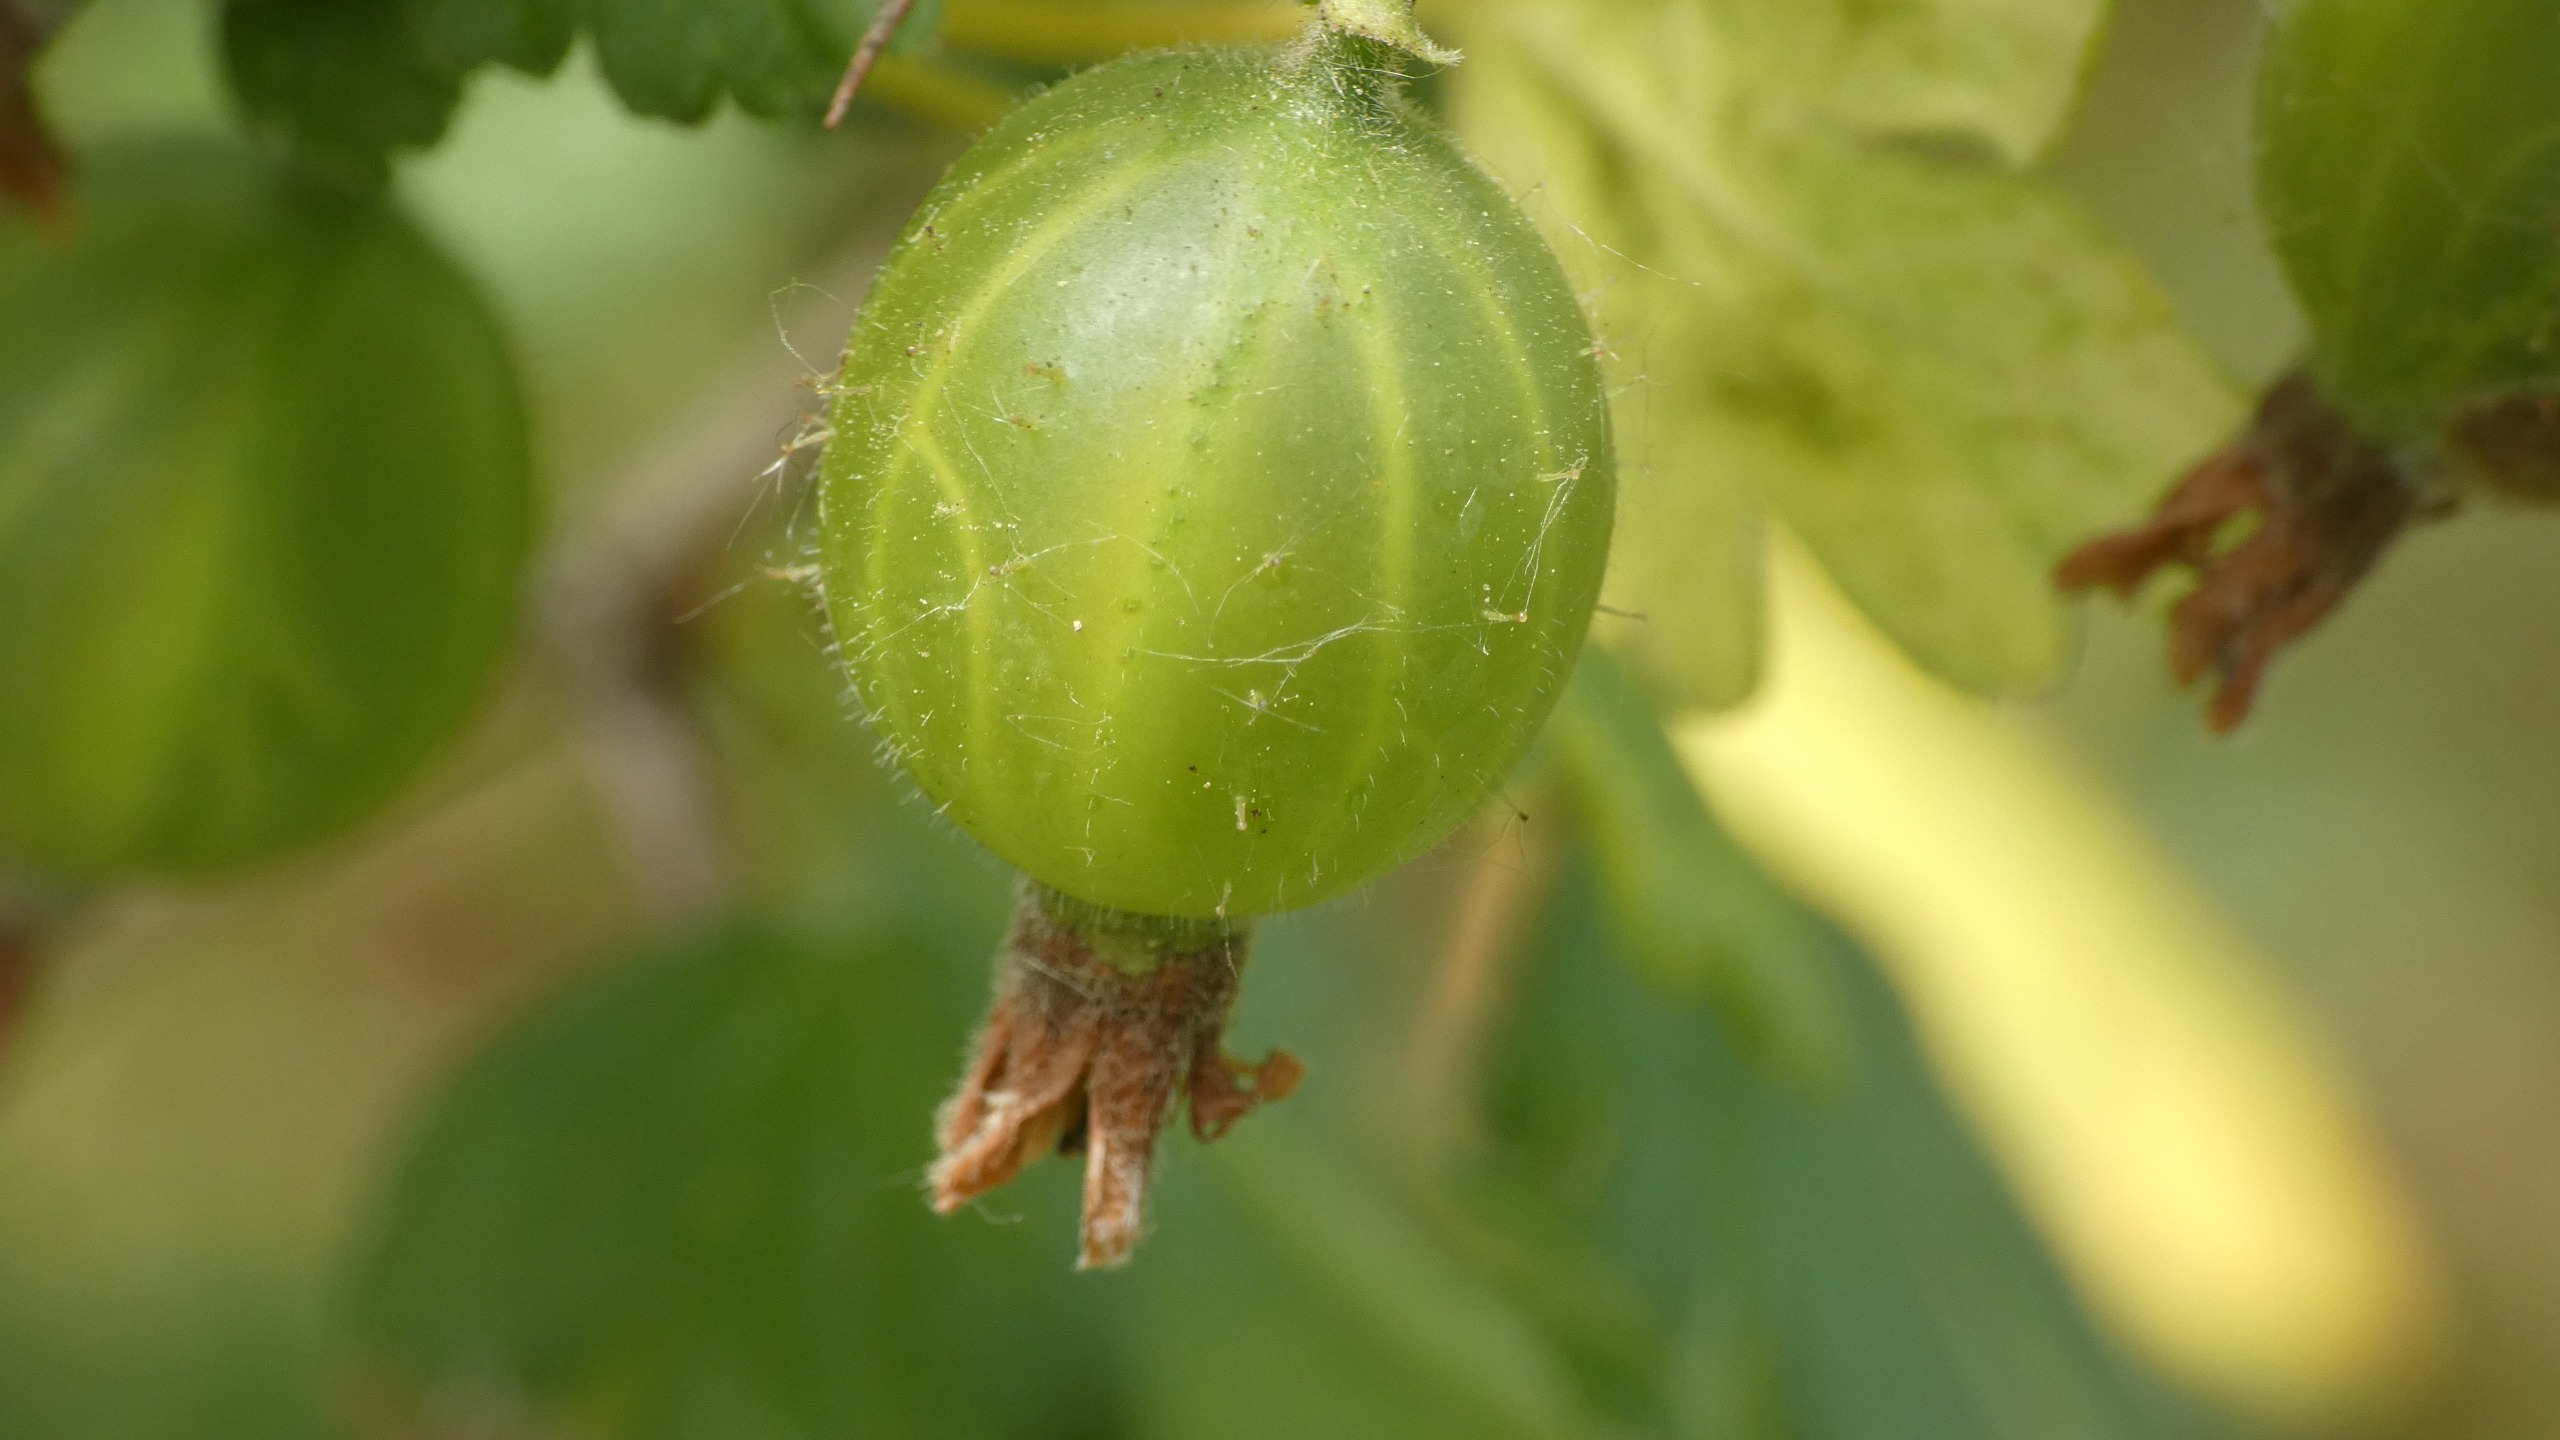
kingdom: Plantae
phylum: Tracheophyta
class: Magnoliopsida
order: Saxifragales
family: Grossulariaceae
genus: Ribes
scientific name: Ribes uva-crispa
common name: Stikkelsbær
